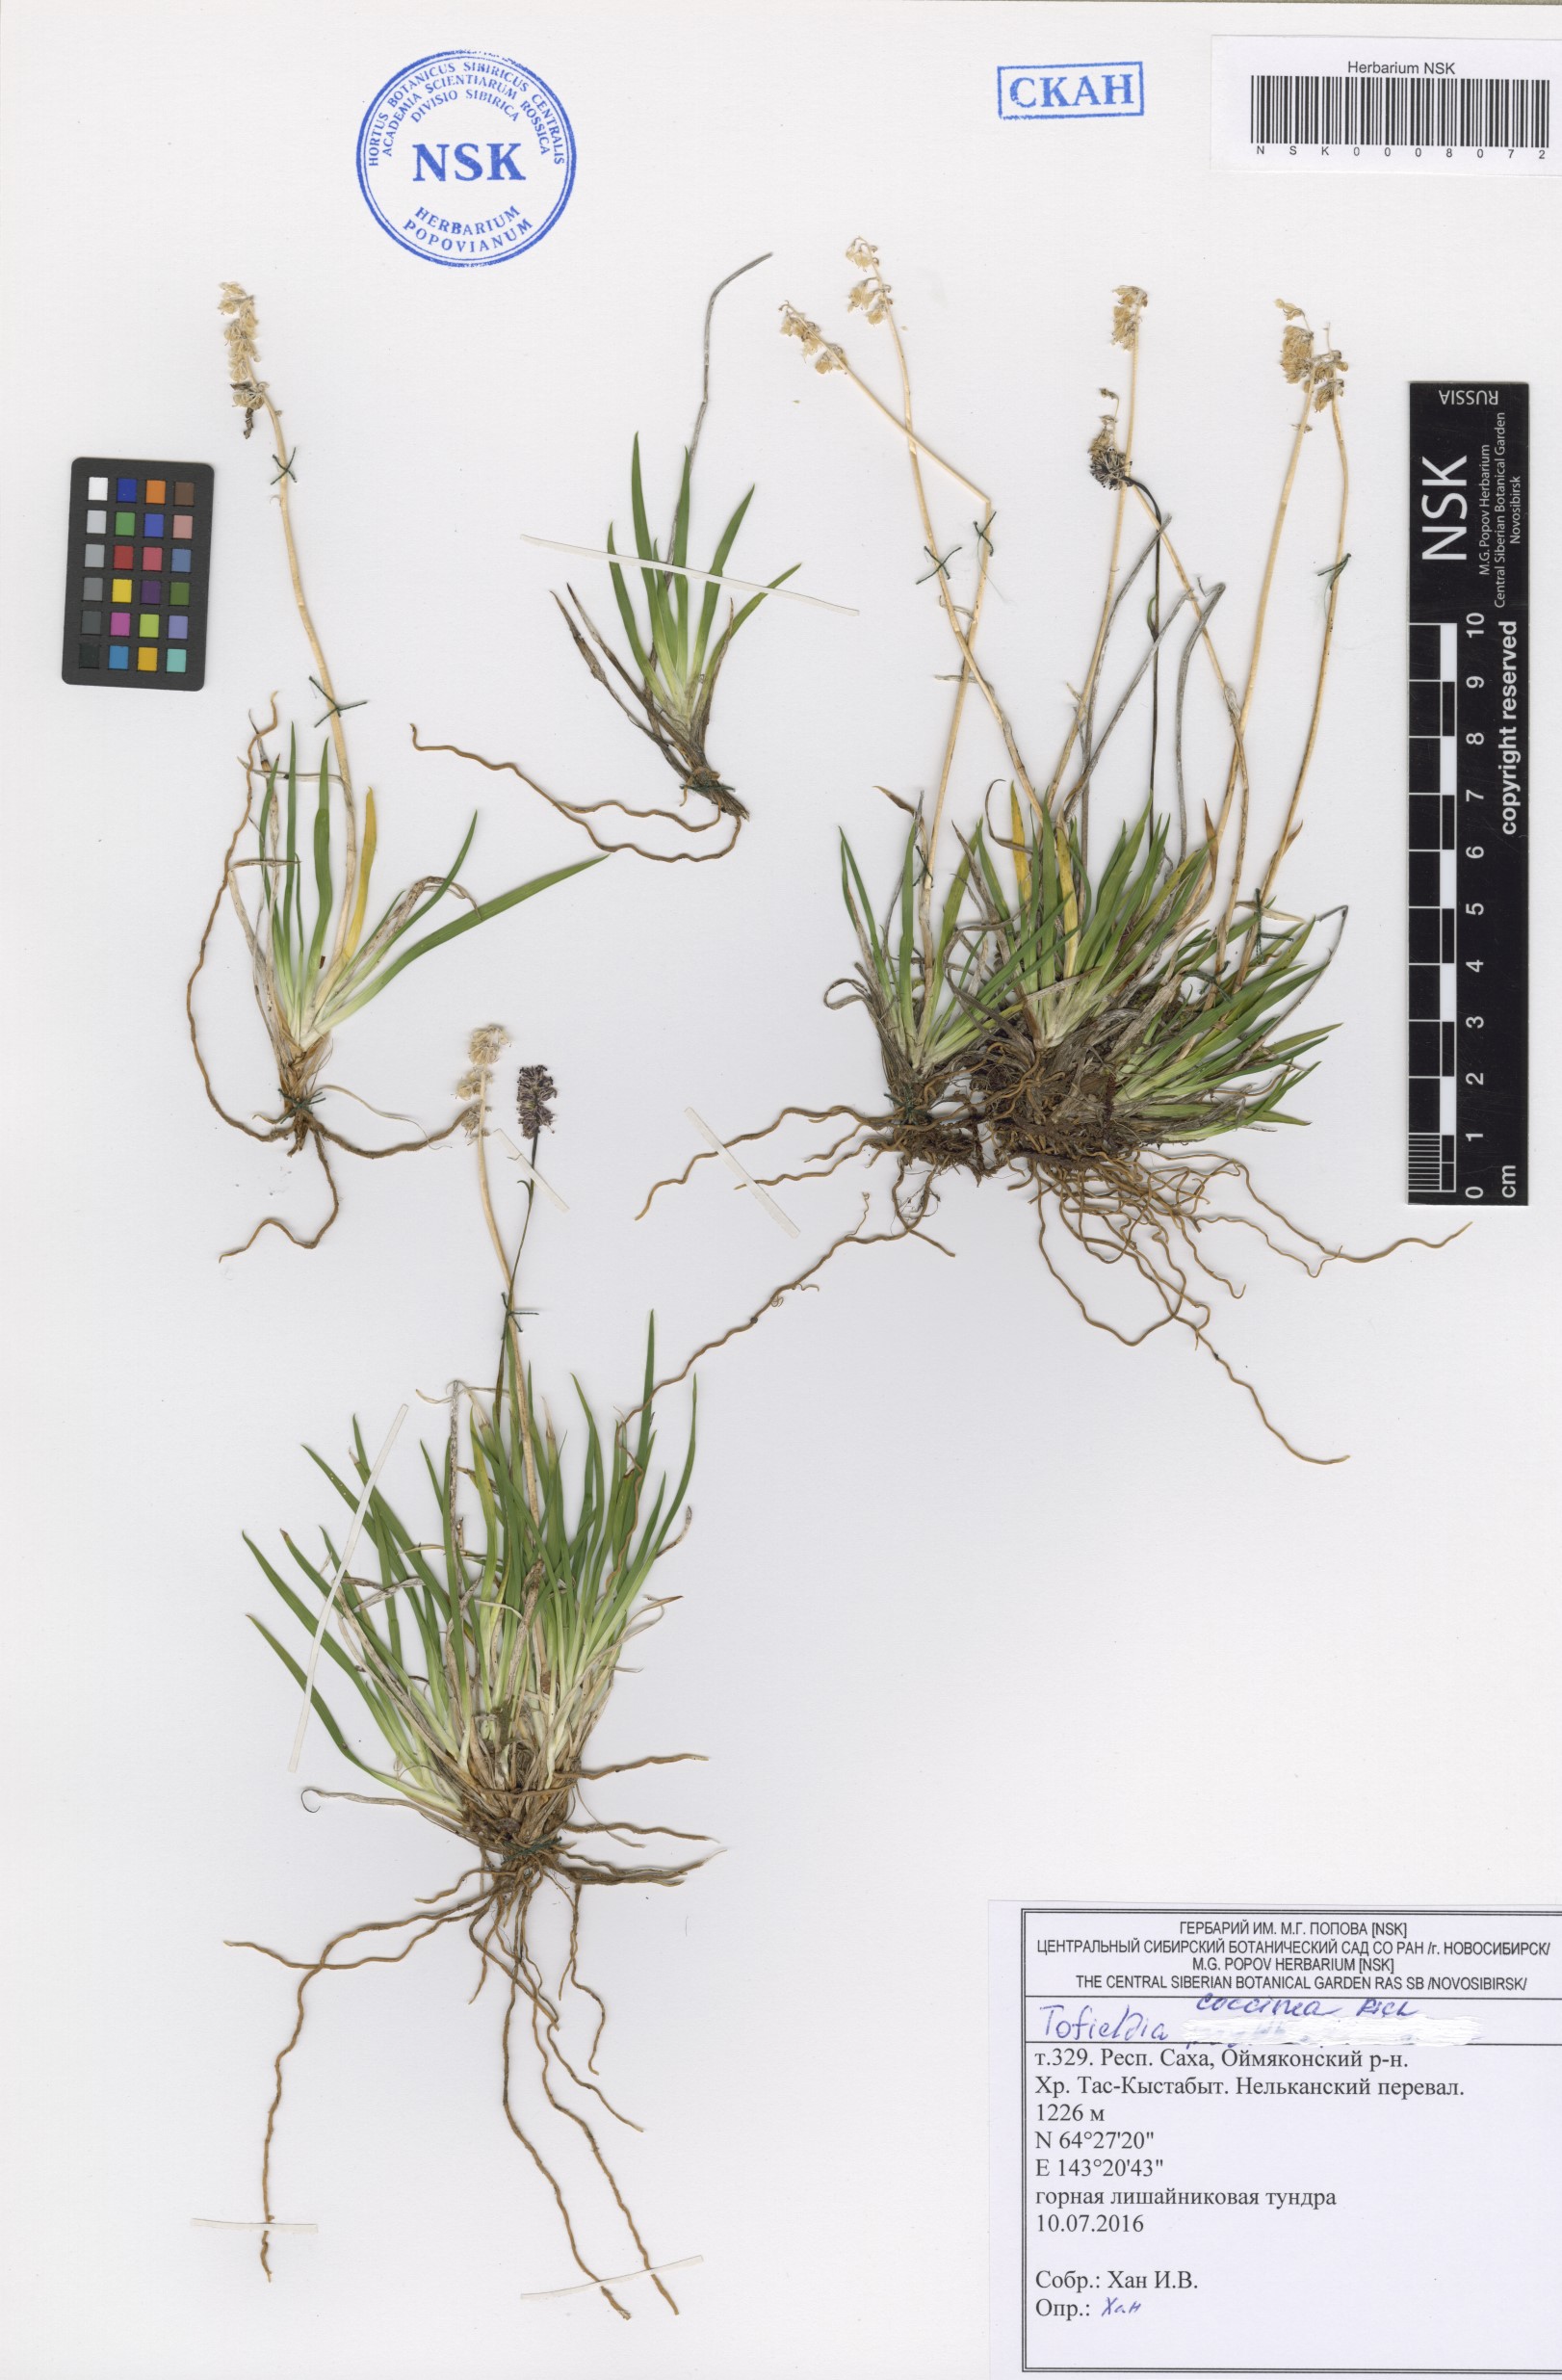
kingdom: Plantae
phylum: Tracheophyta
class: Liliopsida
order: Alismatales
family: Tofieldiaceae
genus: Tofieldia
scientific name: Tofieldia coccinea
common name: Northern false asphodel
